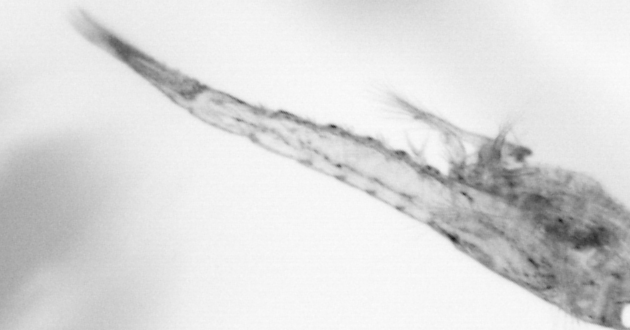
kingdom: Animalia
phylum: Arthropoda
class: Maxillopoda
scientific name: Maxillopoda
